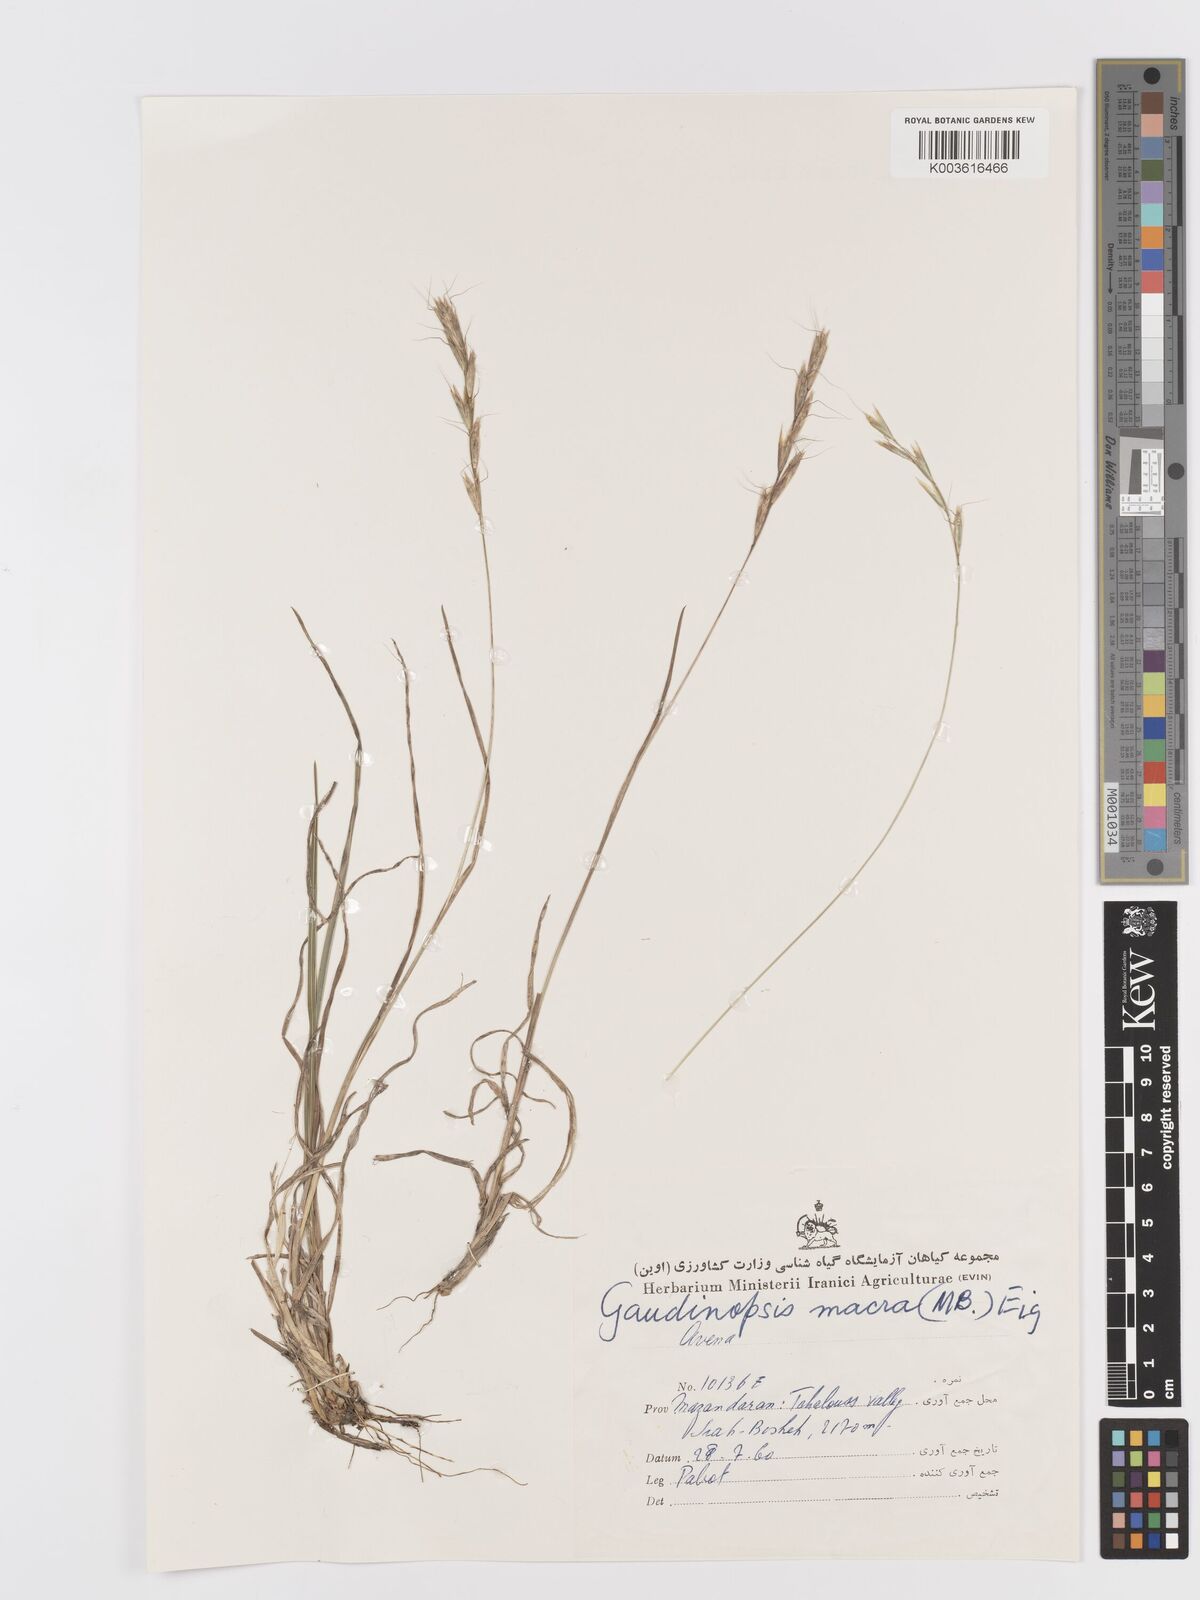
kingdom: Plantae
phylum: Tracheophyta
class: Liliopsida
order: Poales
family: Poaceae
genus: Ventenata
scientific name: Ventenata macra
